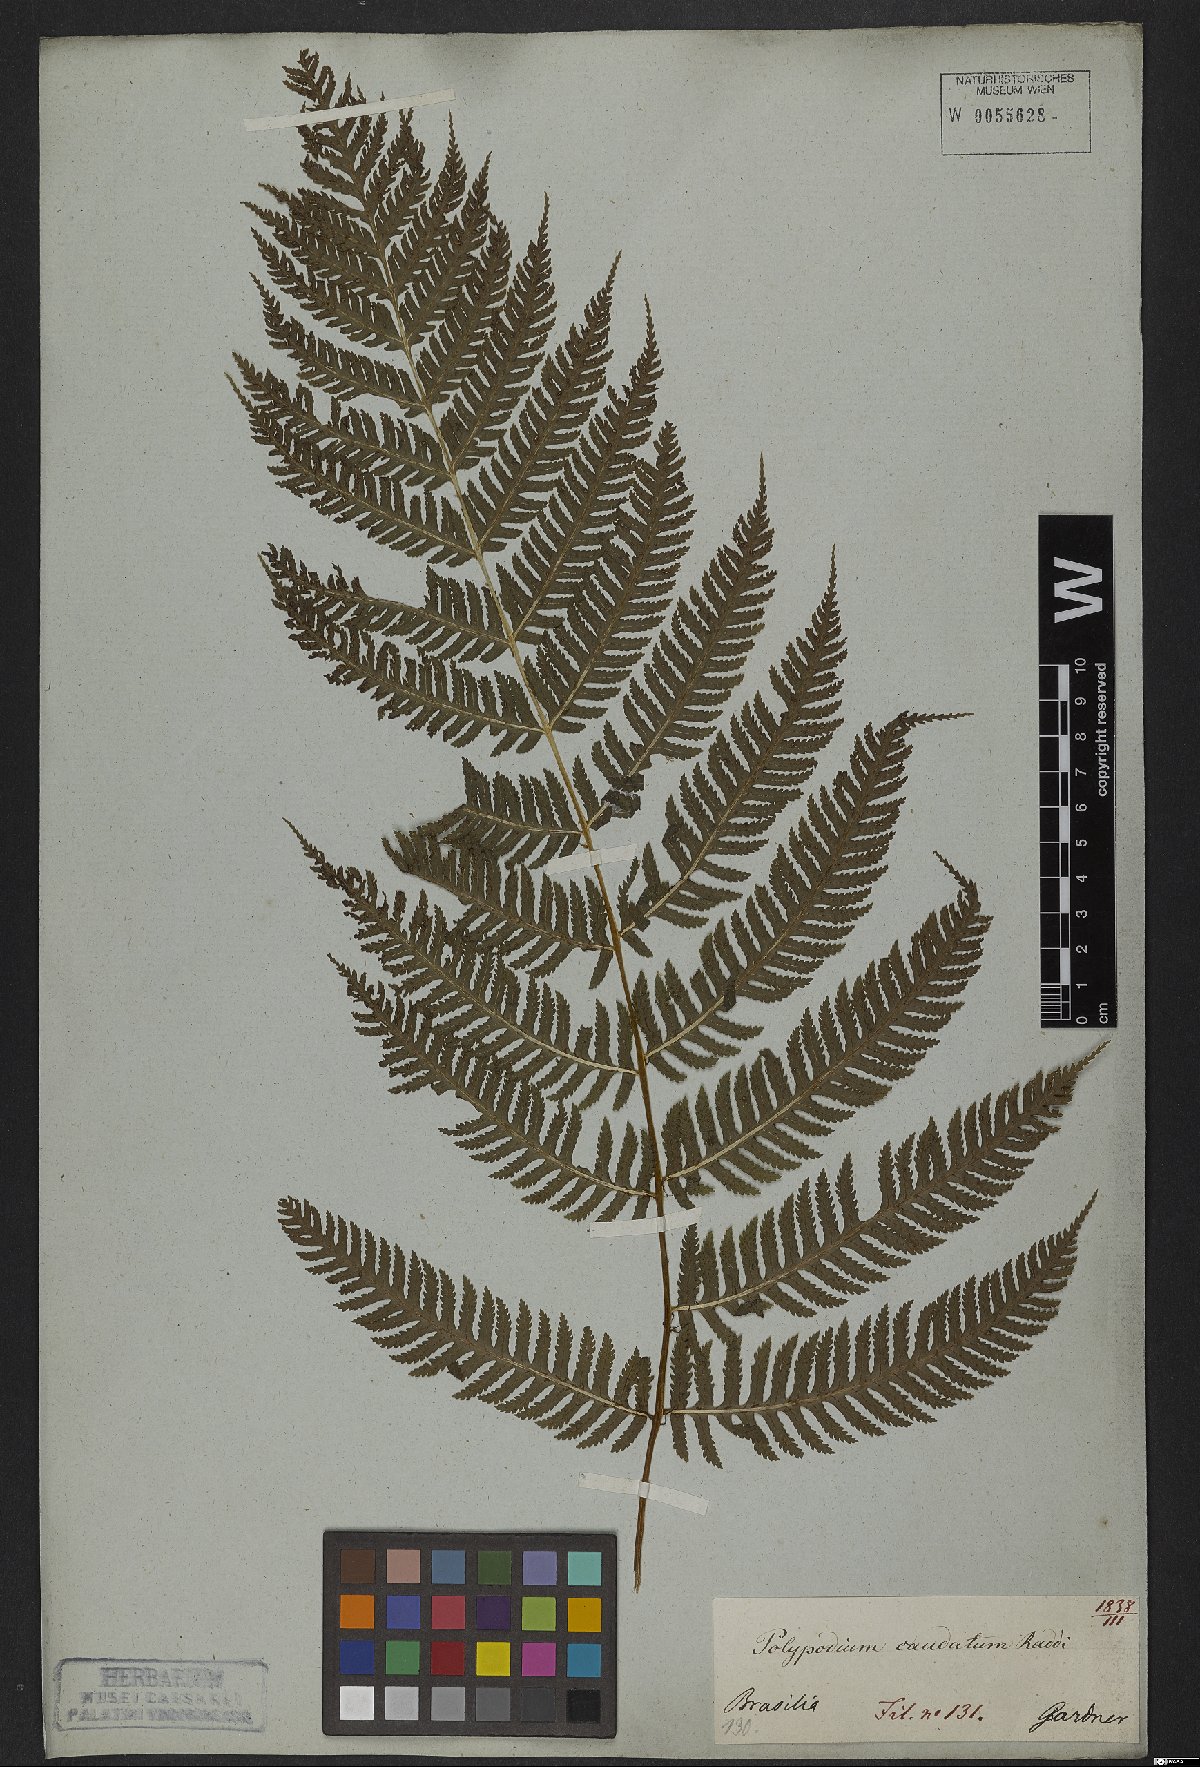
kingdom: Plantae
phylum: Tracheophyta
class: Polypodiopsida
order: Polypodiales
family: Dryopteridaceae
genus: Stigmatopteris
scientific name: Stigmatopteris caudata
